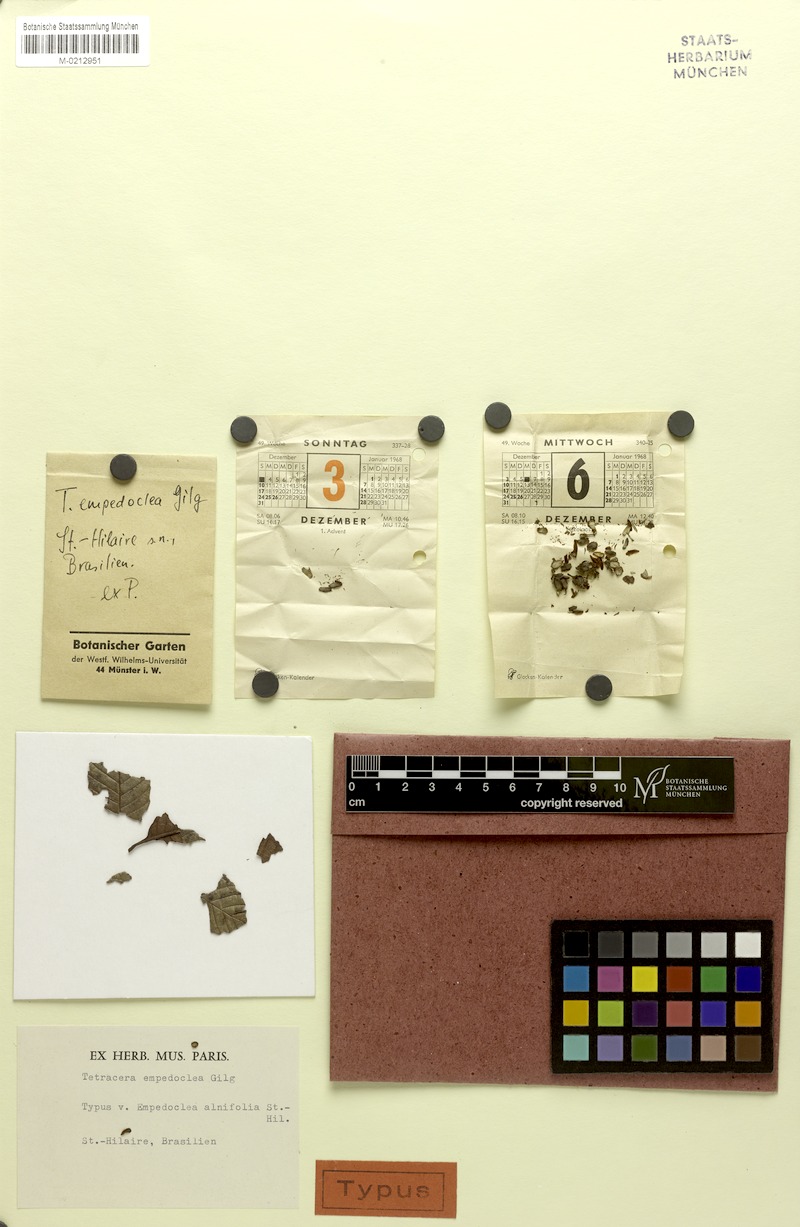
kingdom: Plantae
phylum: Tracheophyta
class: Magnoliopsida
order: Dilleniales
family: Dilleniaceae
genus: Tetracera
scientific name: Tetracera empedoclea
